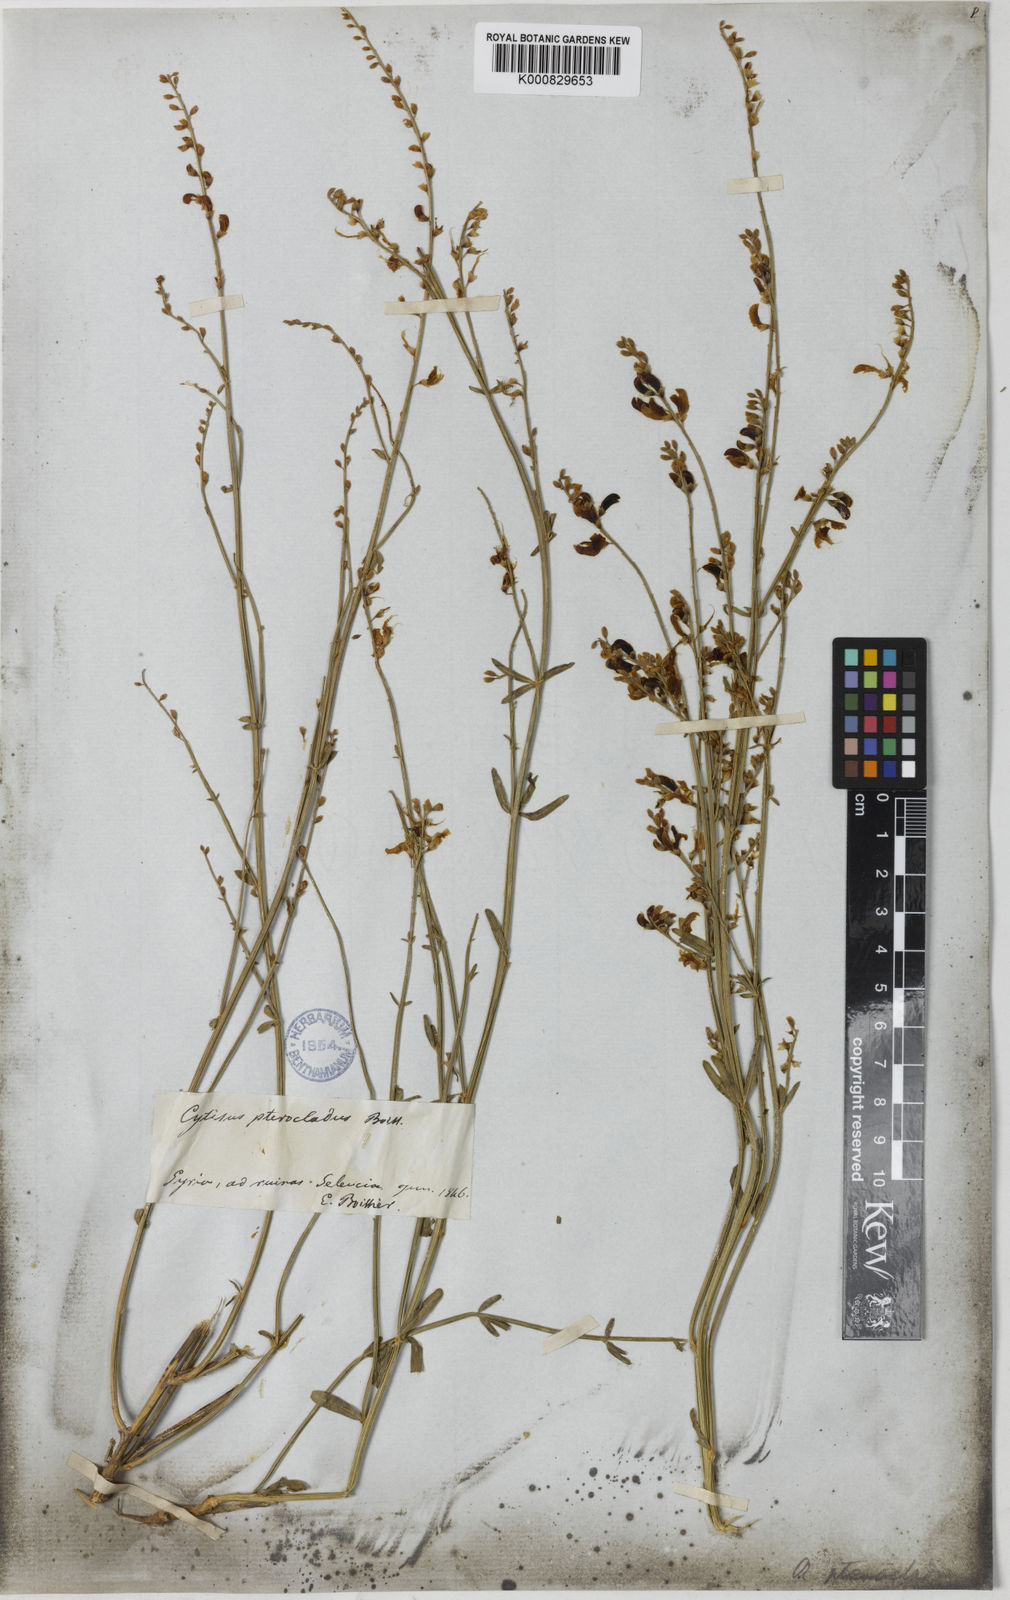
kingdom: Plantae
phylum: Tracheophyta
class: Magnoliopsida
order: Fabales
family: Fabaceae
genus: Genista
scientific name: Genista aucheri
